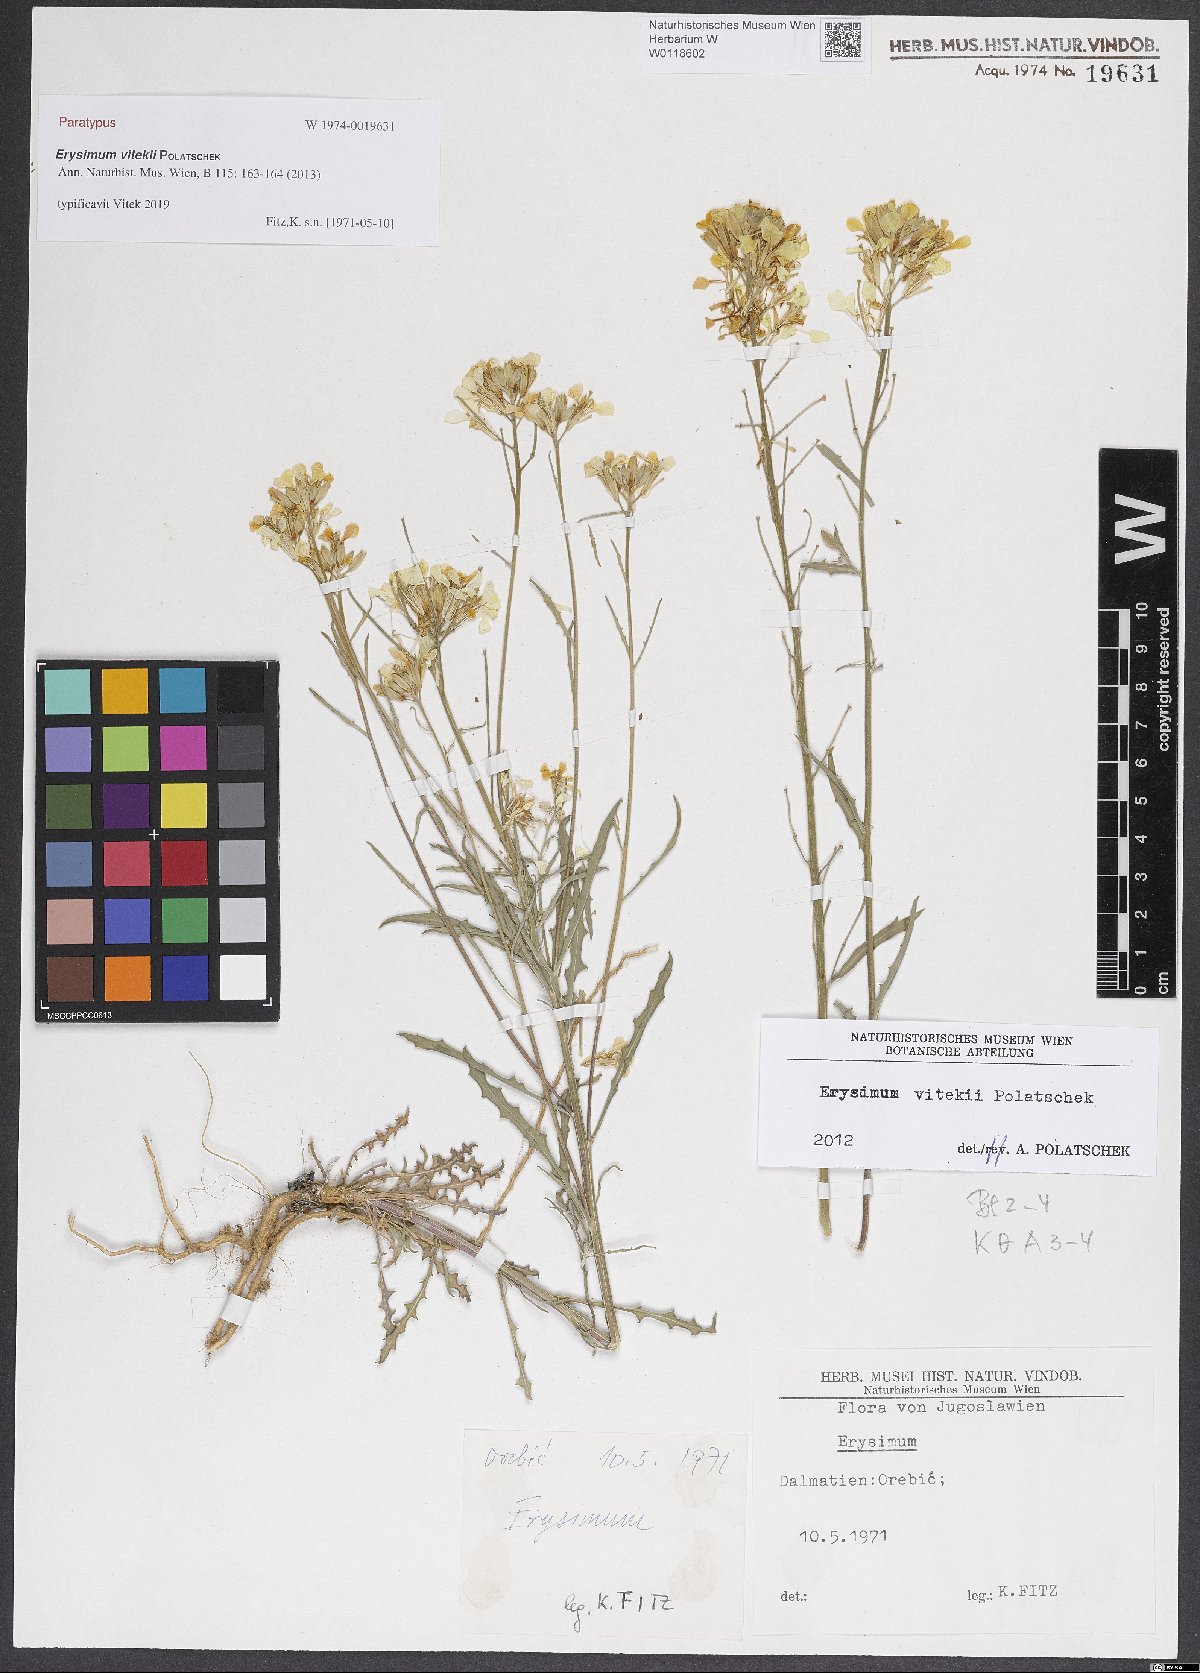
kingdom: Plantae
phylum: Tracheophyta
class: Magnoliopsida
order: Brassicales
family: Brassicaceae
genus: Erysimum
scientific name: Erysimum vitekii
